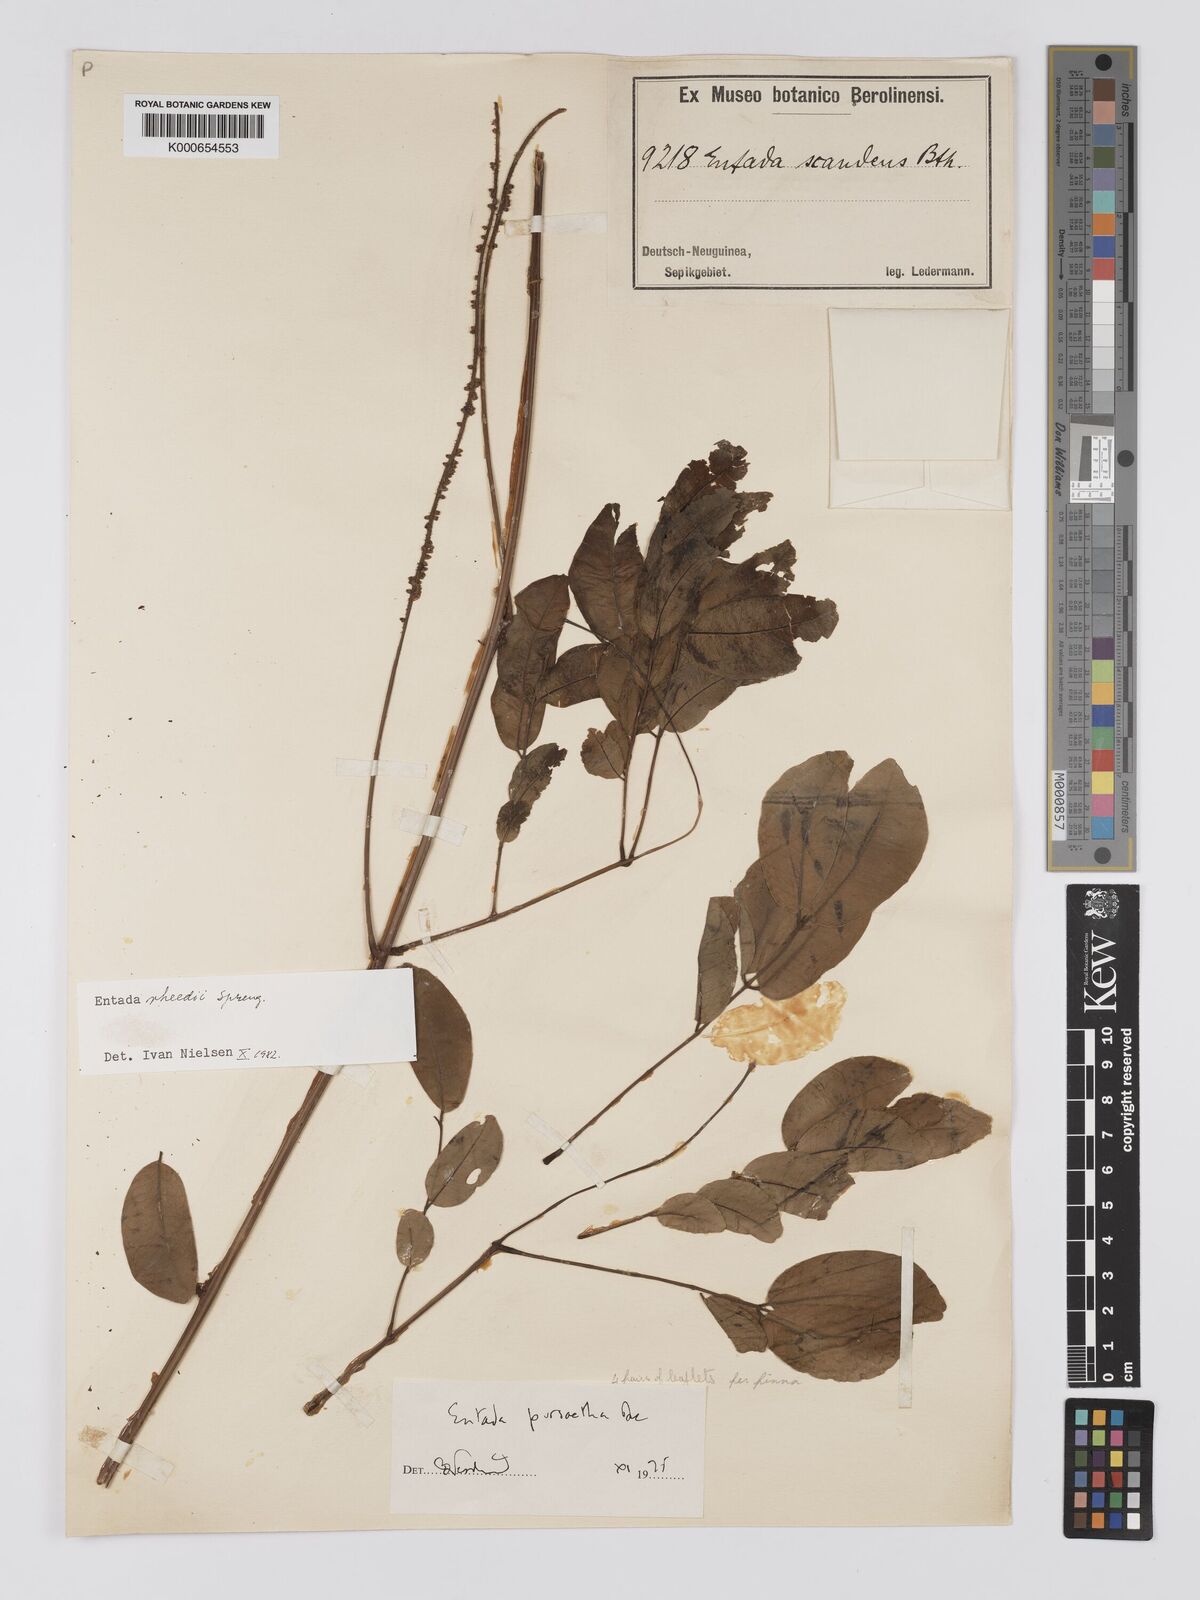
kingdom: Plantae
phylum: Tracheophyta
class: Magnoliopsida
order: Fabales
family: Fabaceae
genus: Entada
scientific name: Entada rheedei
